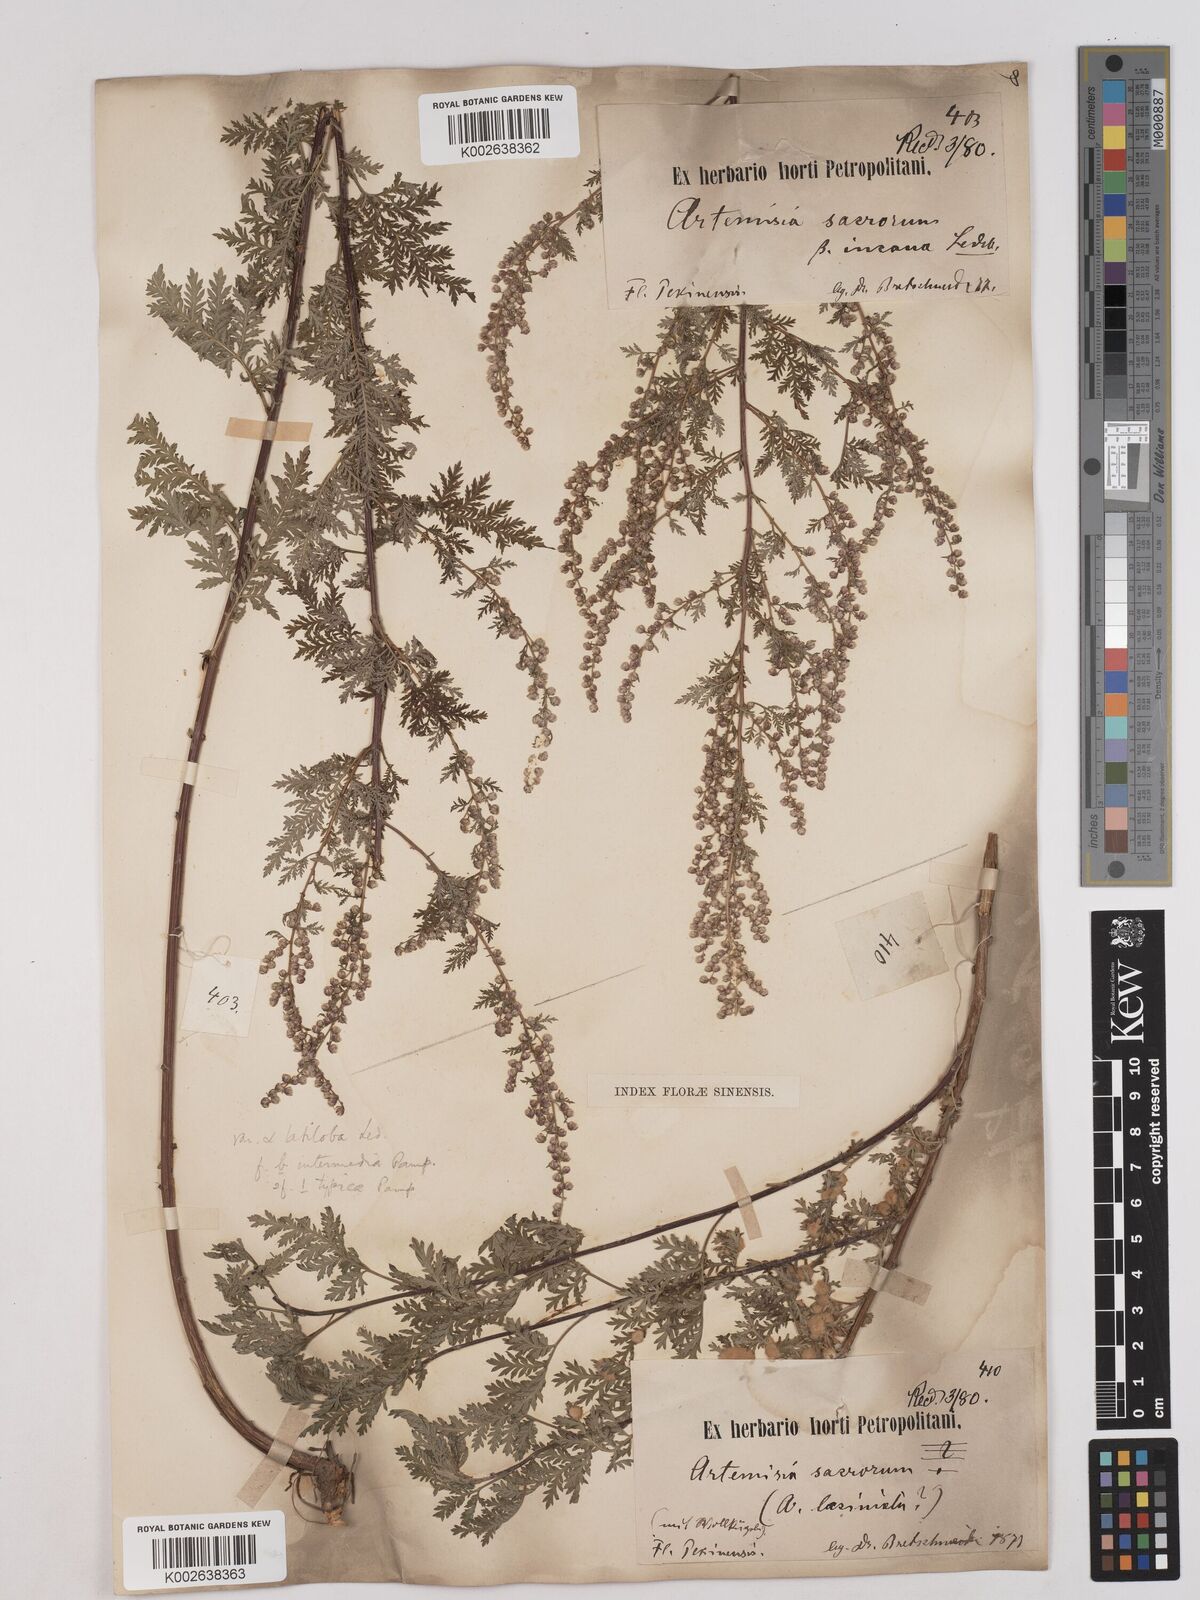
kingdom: Plantae
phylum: Tracheophyta
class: Magnoliopsida
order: Asterales
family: Asteraceae
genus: Artemisia
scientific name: Artemisia gmelinii
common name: Gmelin's wormwood
